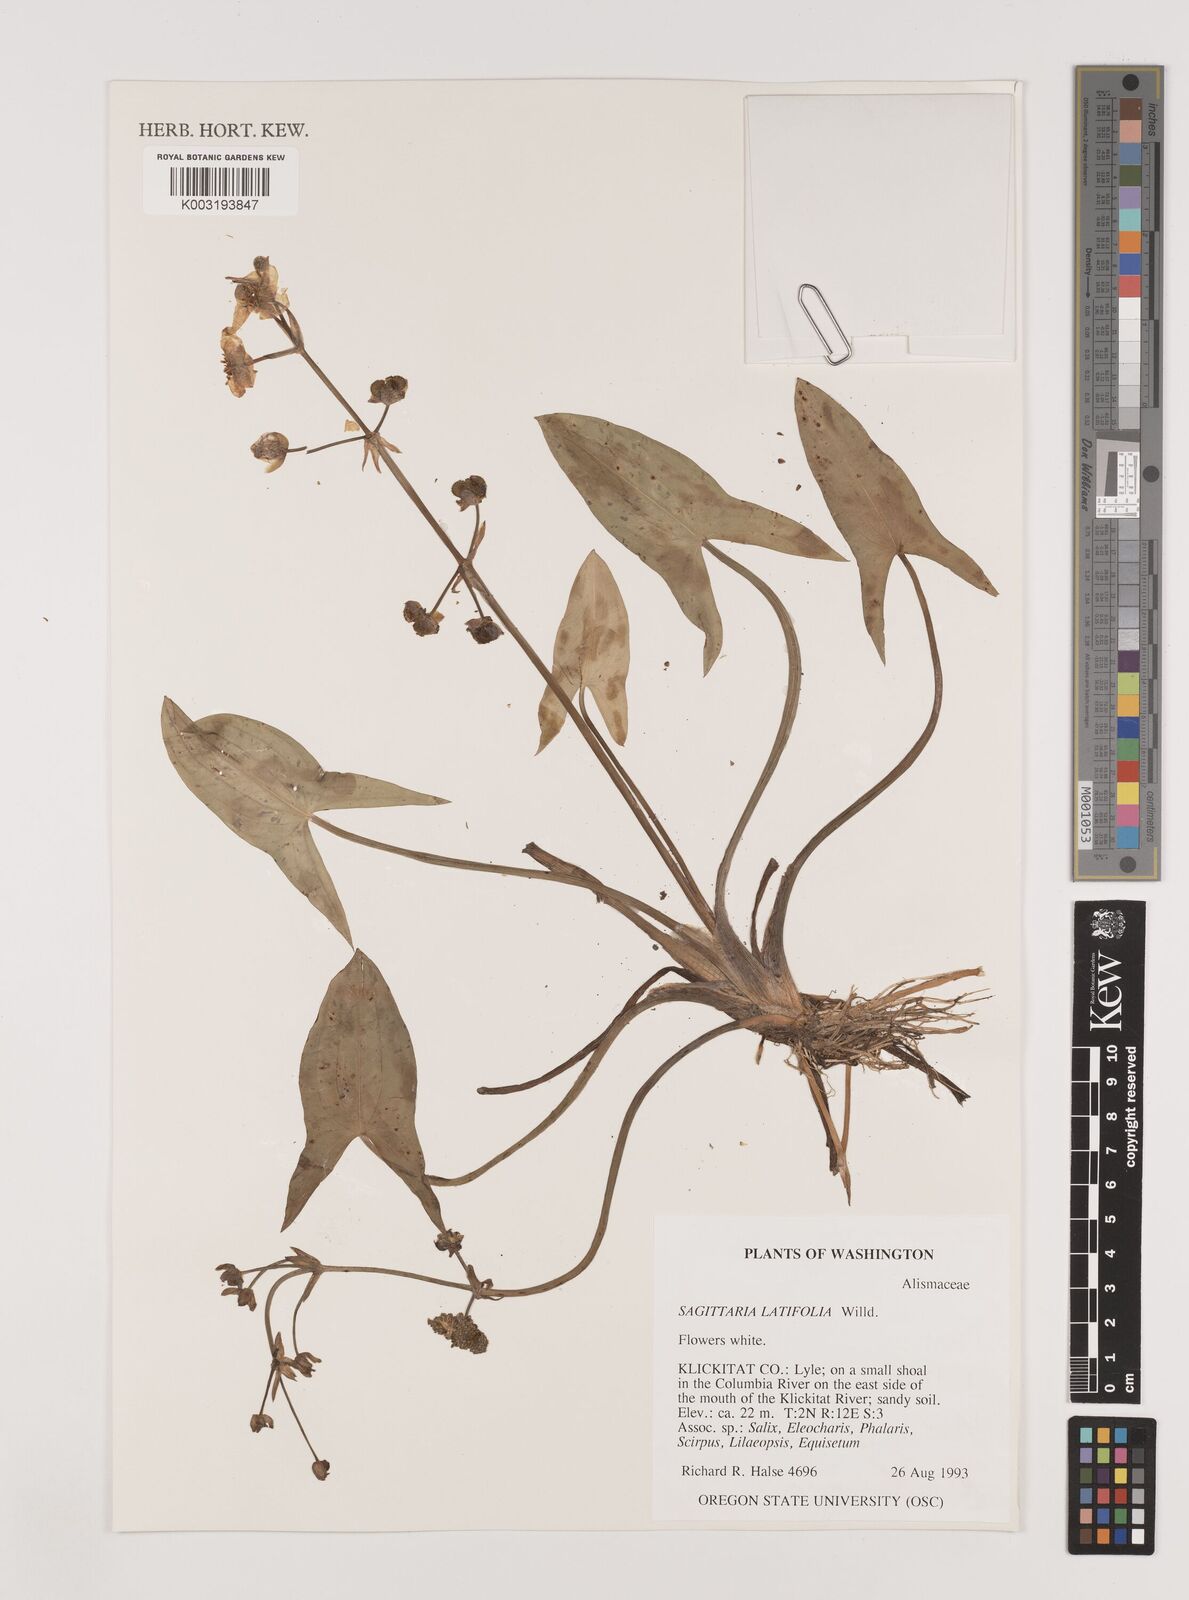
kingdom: Plantae
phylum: Tracheophyta
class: Liliopsida
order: Alismatales
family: Alismataceae
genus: Sagittaria
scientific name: Sagittaria latifolia
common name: Duck-potato
